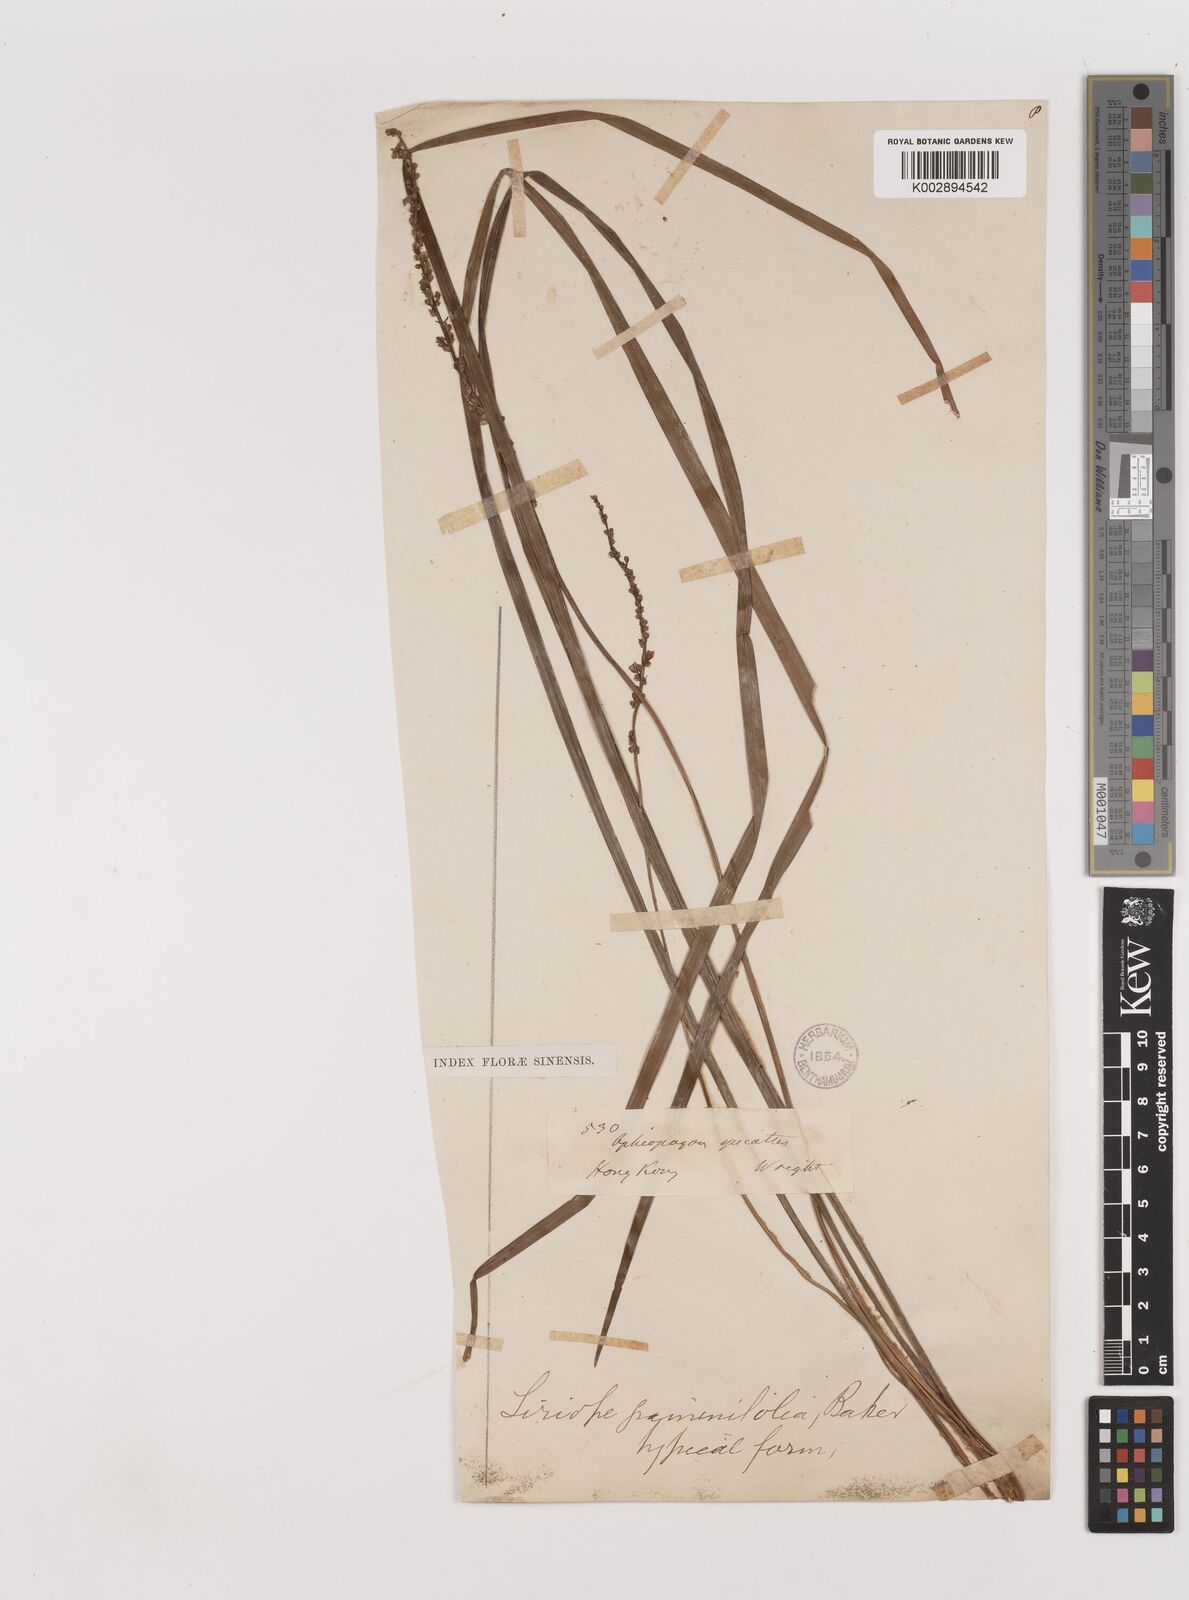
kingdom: Plantae
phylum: Tracheophyta
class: Liliopsida
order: Asparagales
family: Asparagaceae
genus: Liriope
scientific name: Liriope spicata
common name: Creeping liriope
